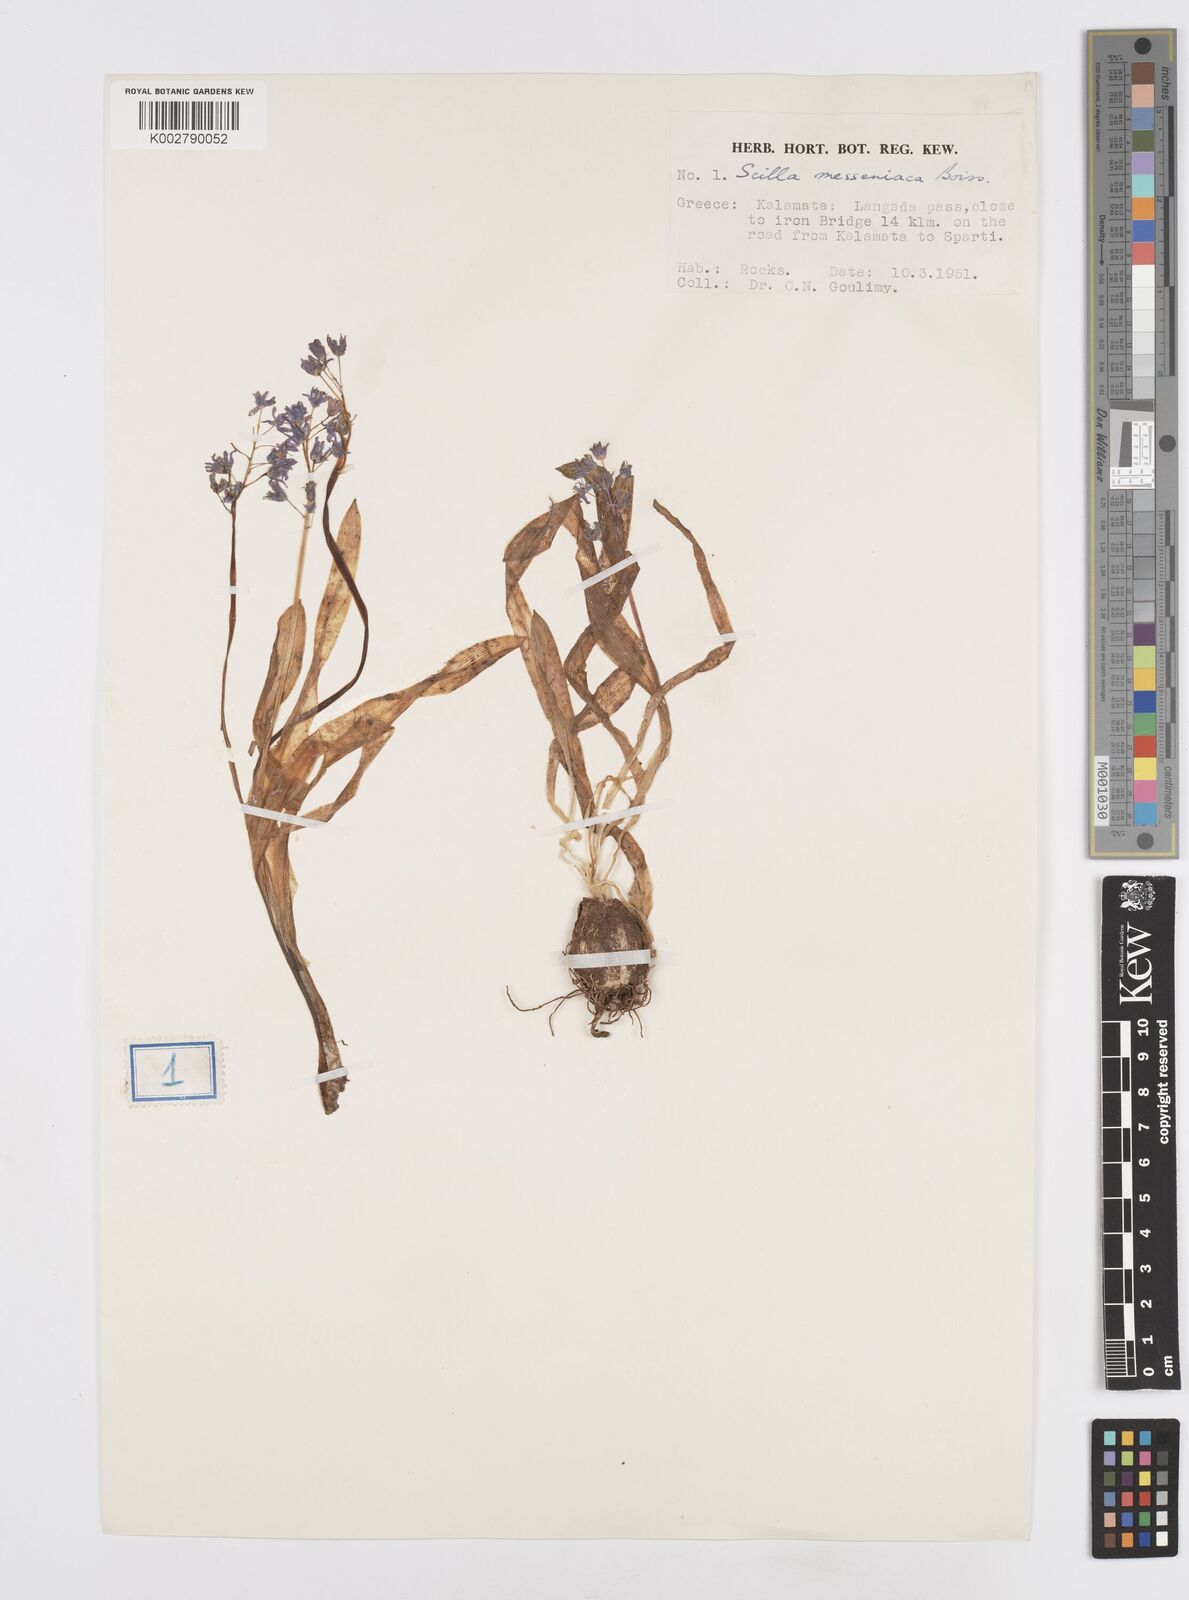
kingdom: Plantae
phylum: Tracheophyta
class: Liliopsida
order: Asparagales
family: Asparagaceae
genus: Scilla
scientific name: Scilla messeniaca
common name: Greek squill
